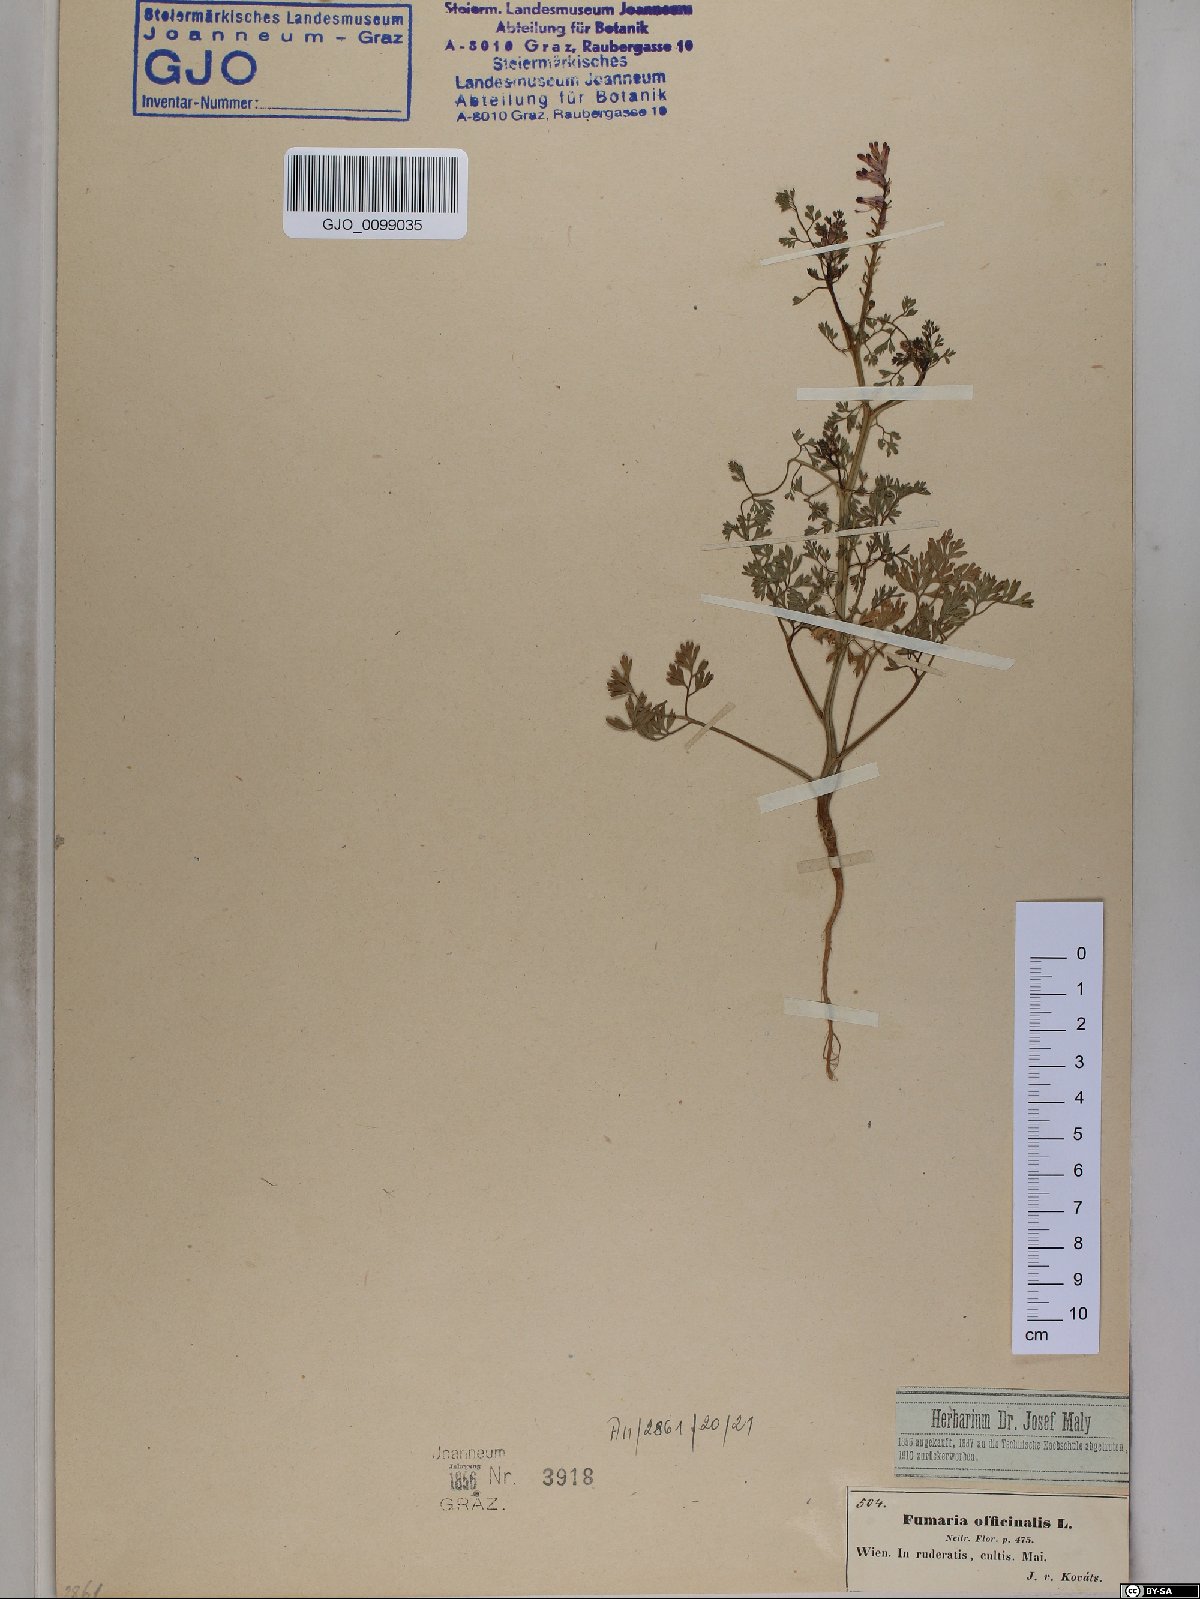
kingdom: Plantae
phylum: Tracheophyta
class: Magnoliopsida
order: Ranunculales
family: Papaveraceae
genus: Fumaria
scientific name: Fumaria officinalis
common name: Common fumitory
